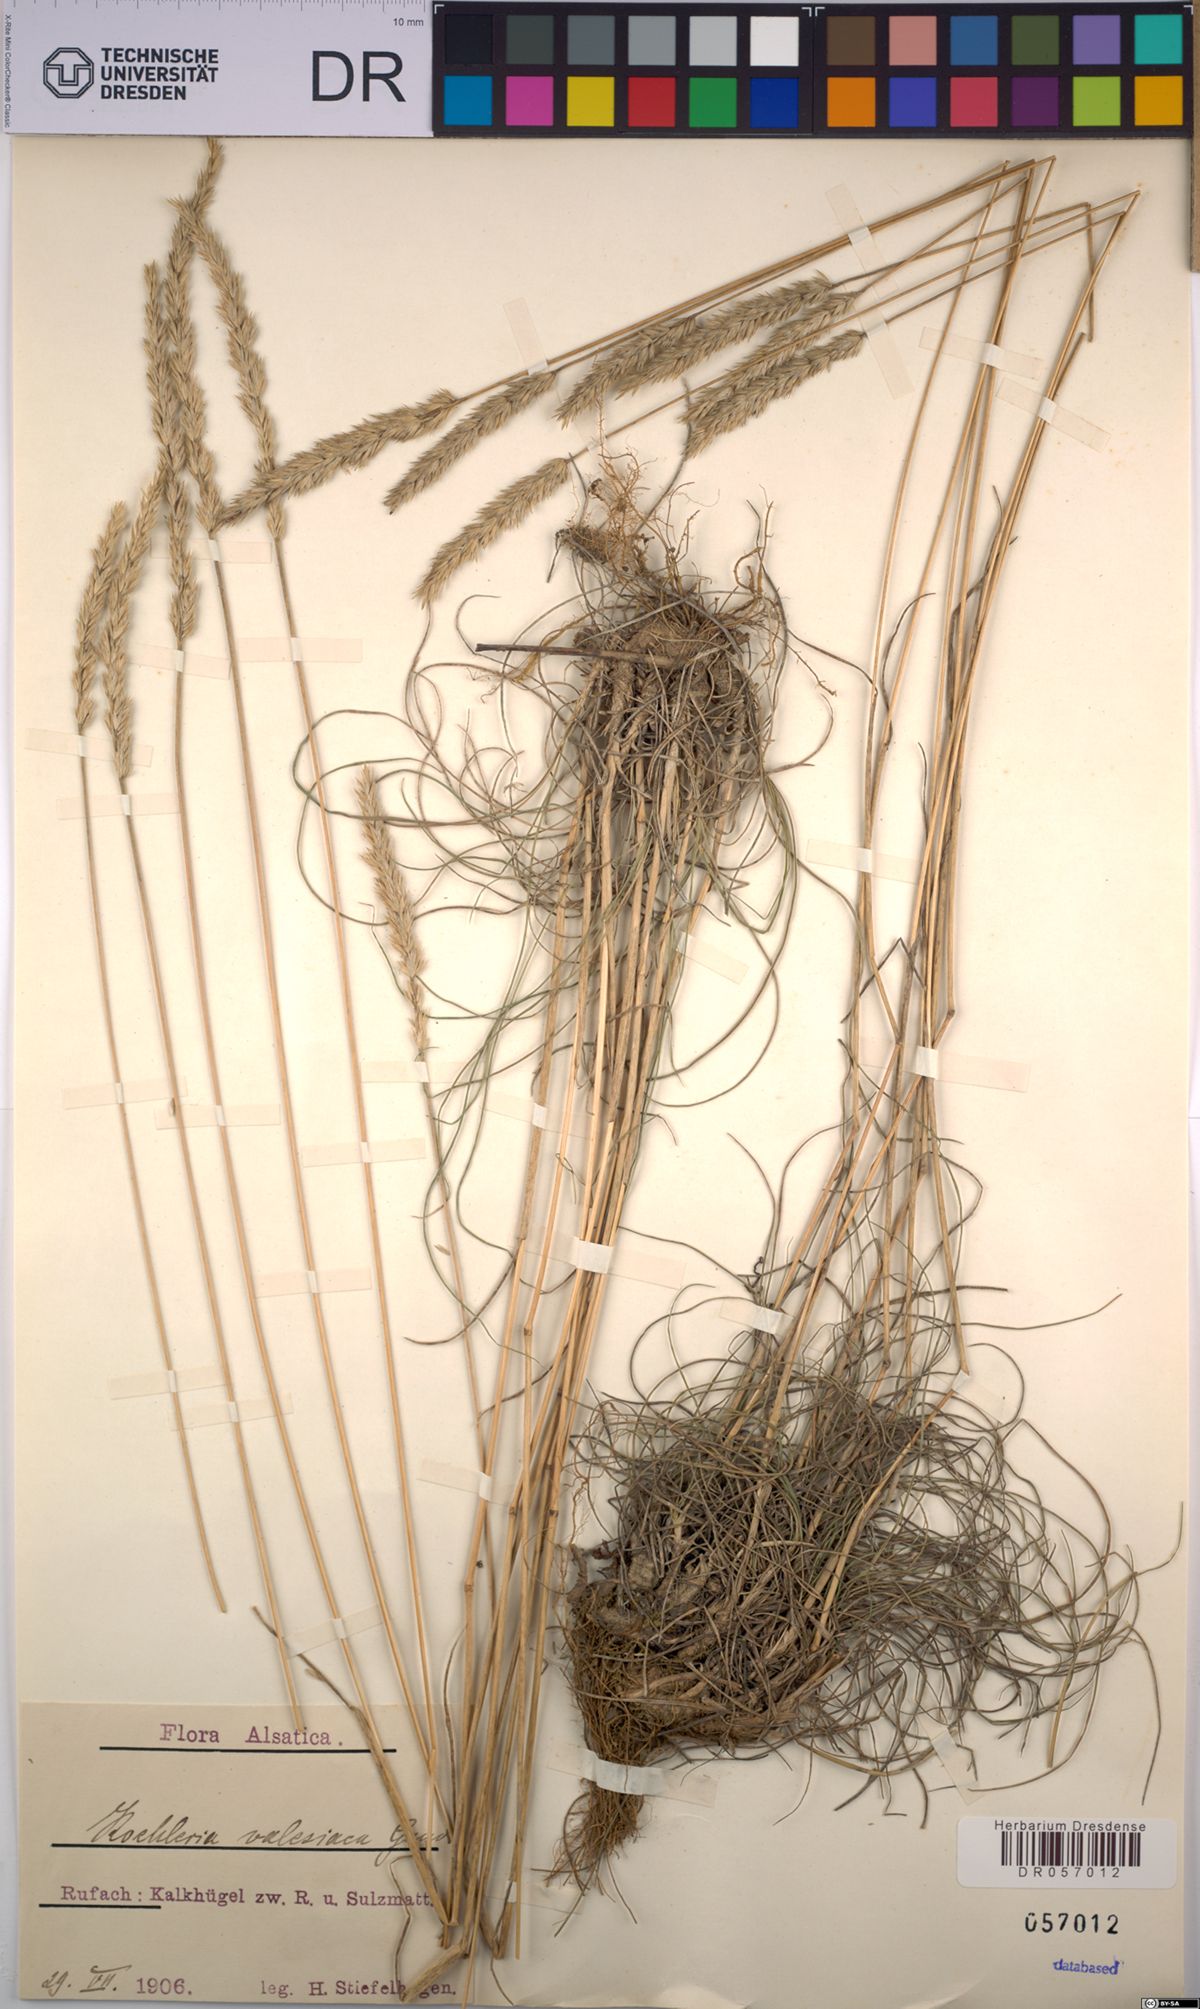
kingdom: Plantae
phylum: Tracheophyta
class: Liliopsida
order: Poales
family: Poaceae
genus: Koeleria
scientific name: Koeleria vallesiana
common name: Somerset hair-grass
